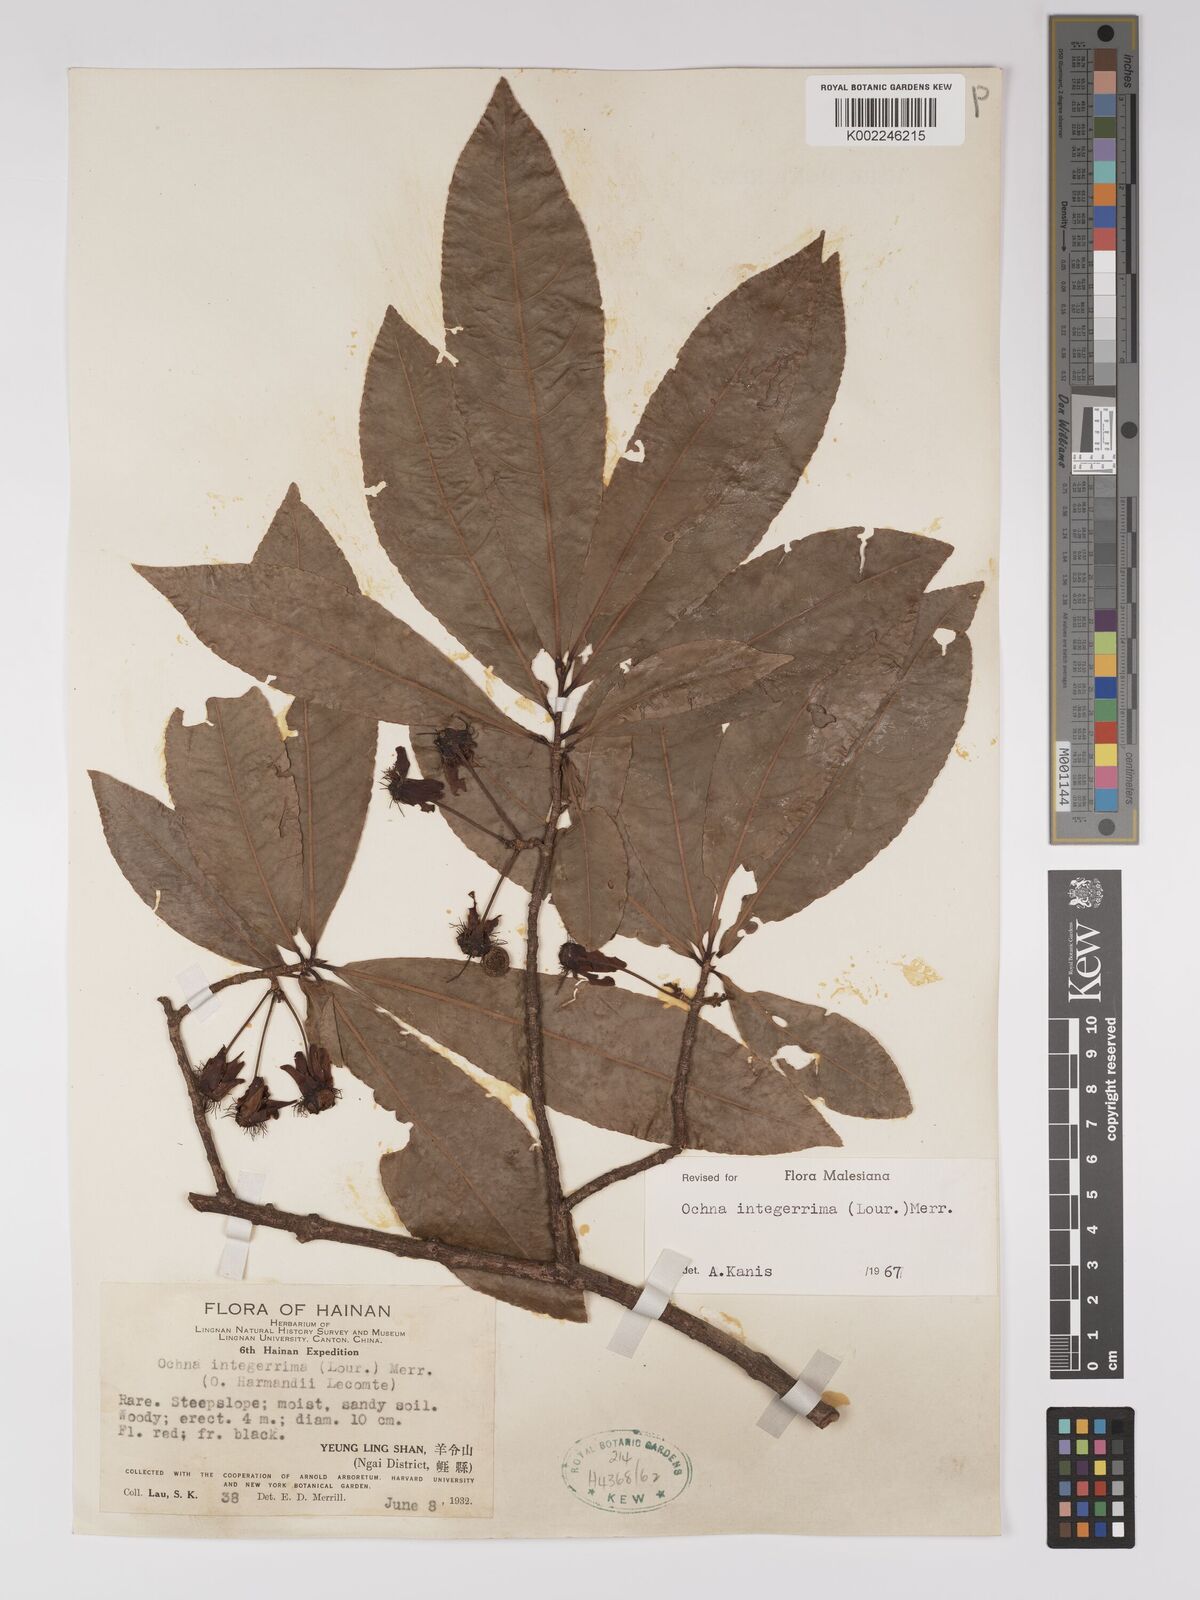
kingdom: Plantae
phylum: Tracheophyta
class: Magnoliopsida
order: Malpighiales
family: Ochnaceae
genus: Ochna
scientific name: Ochna integerrima
